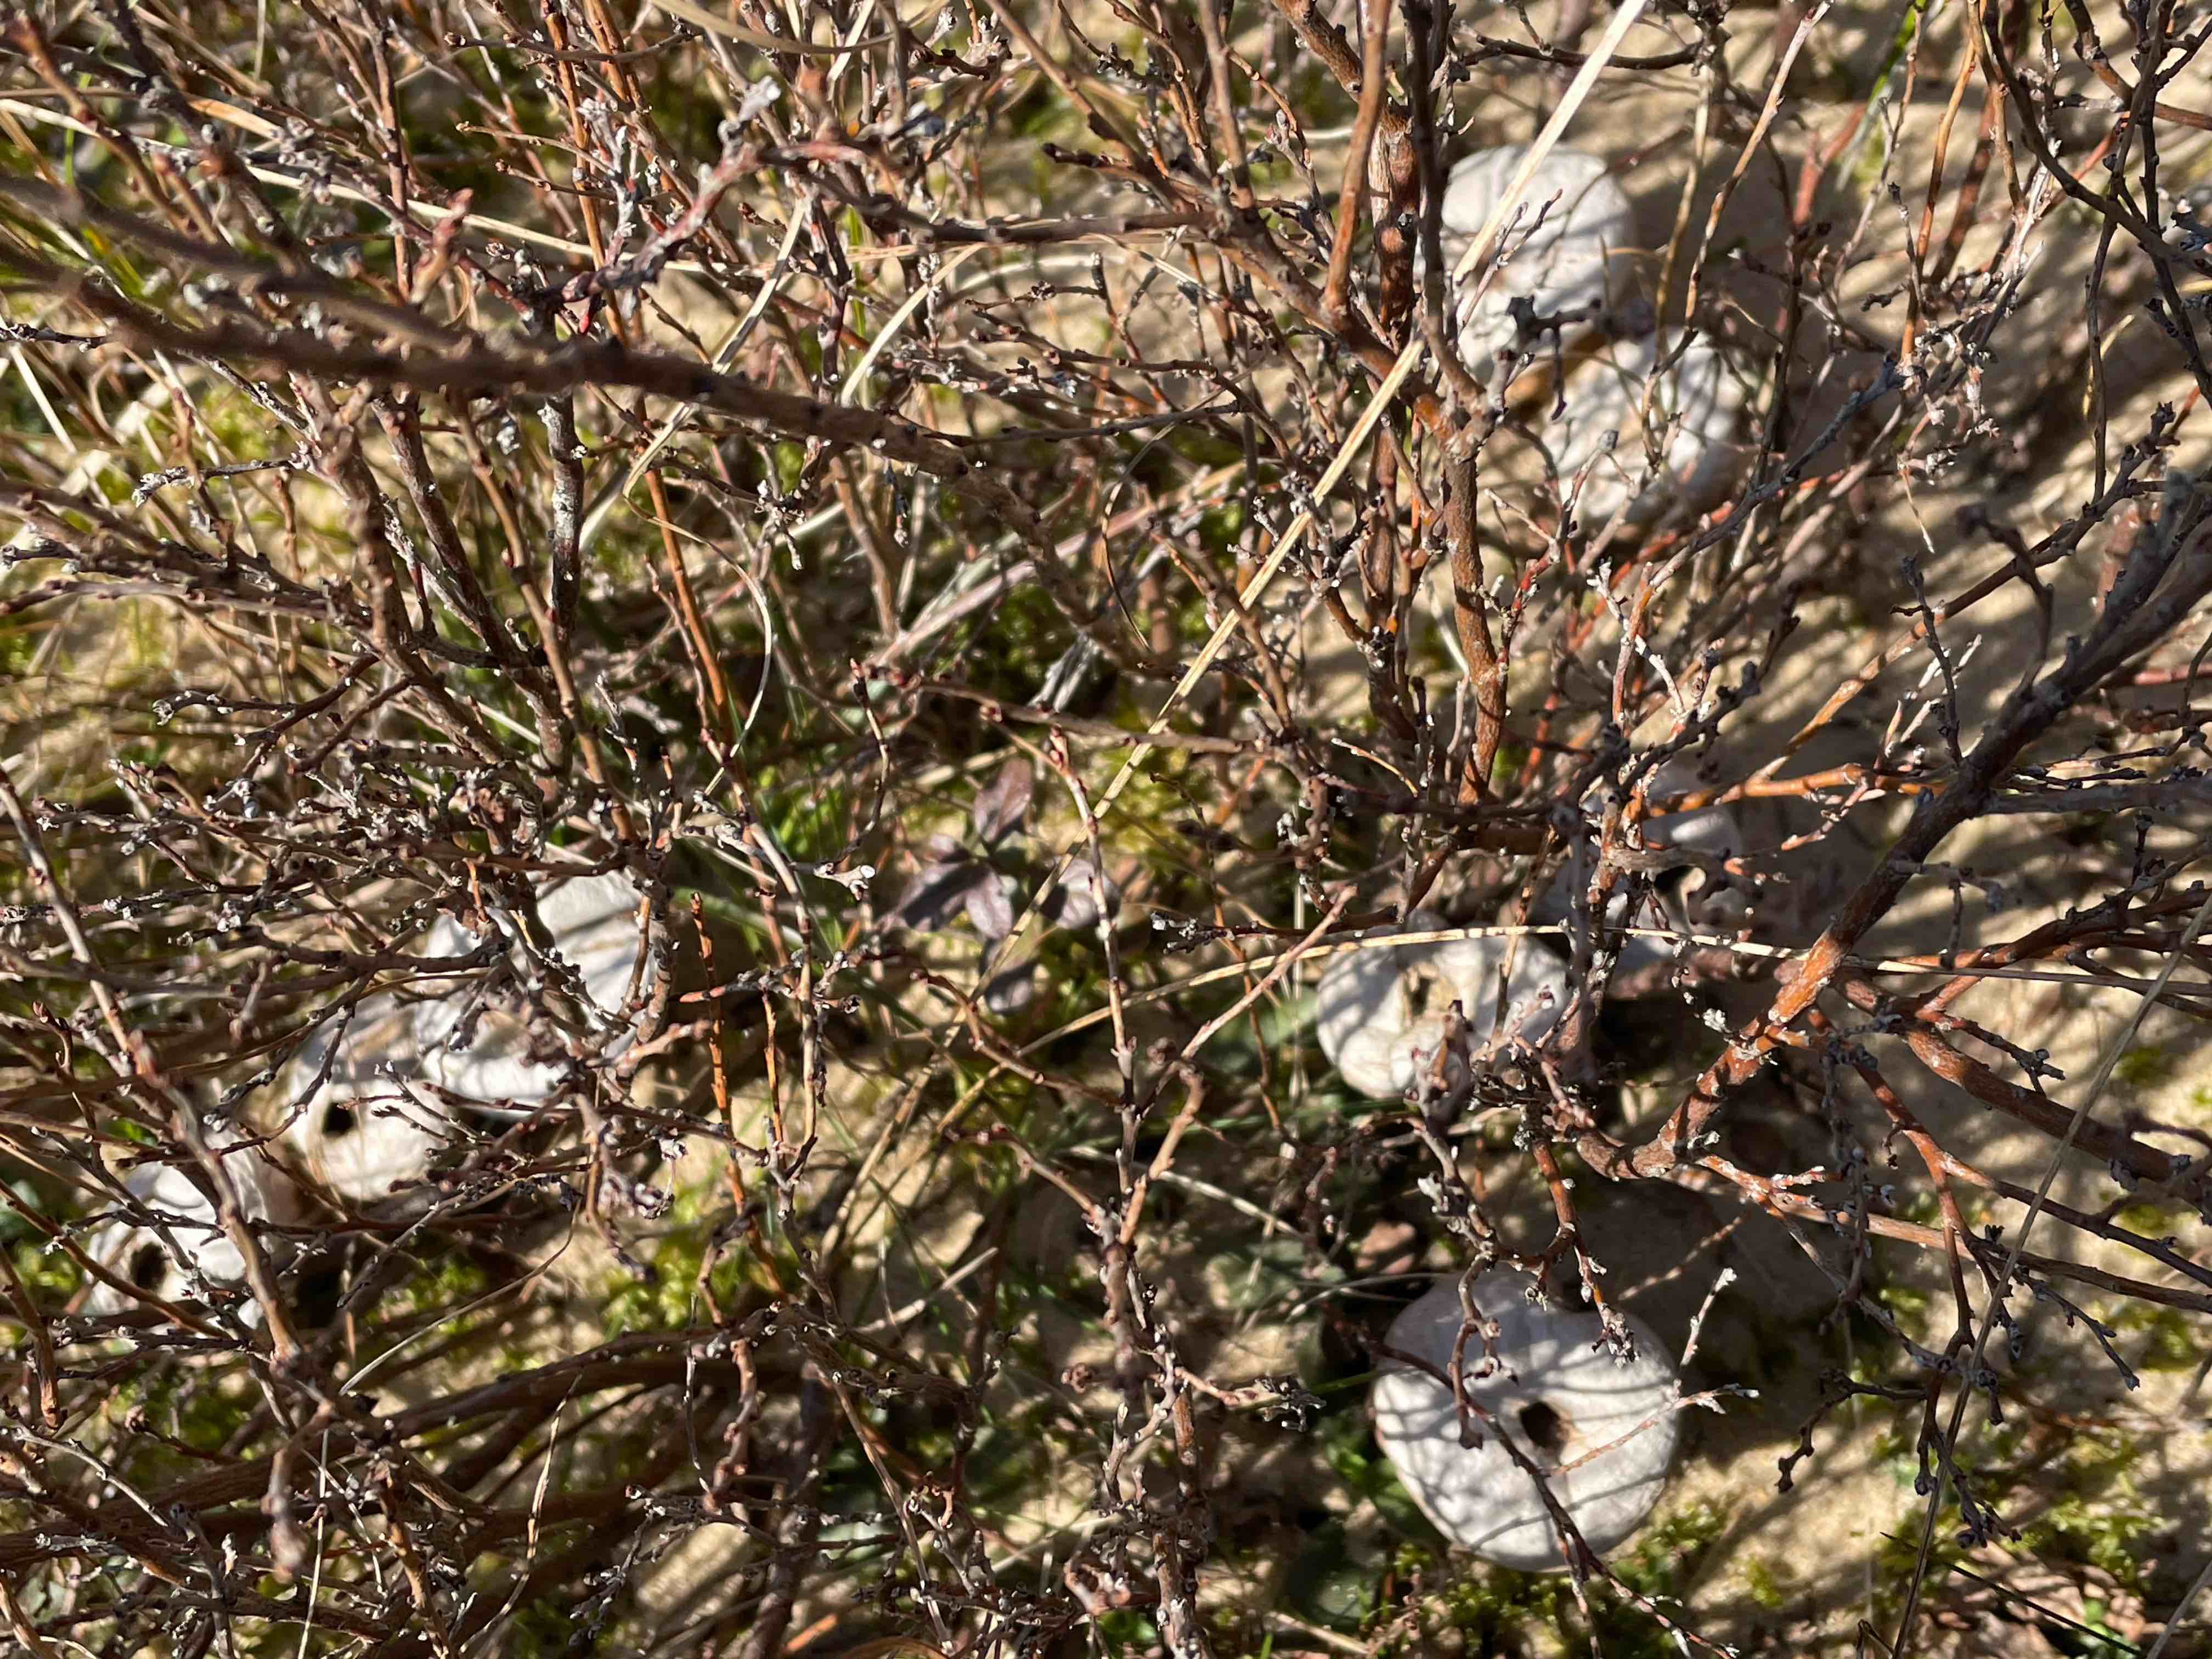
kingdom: Fungi
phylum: Basidiomycota
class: Agaricomycetes
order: Agaricales
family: Lycoperdaceae
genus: Lycoperdon
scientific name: Lycoperdon perlatum
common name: krystal-støvbold
